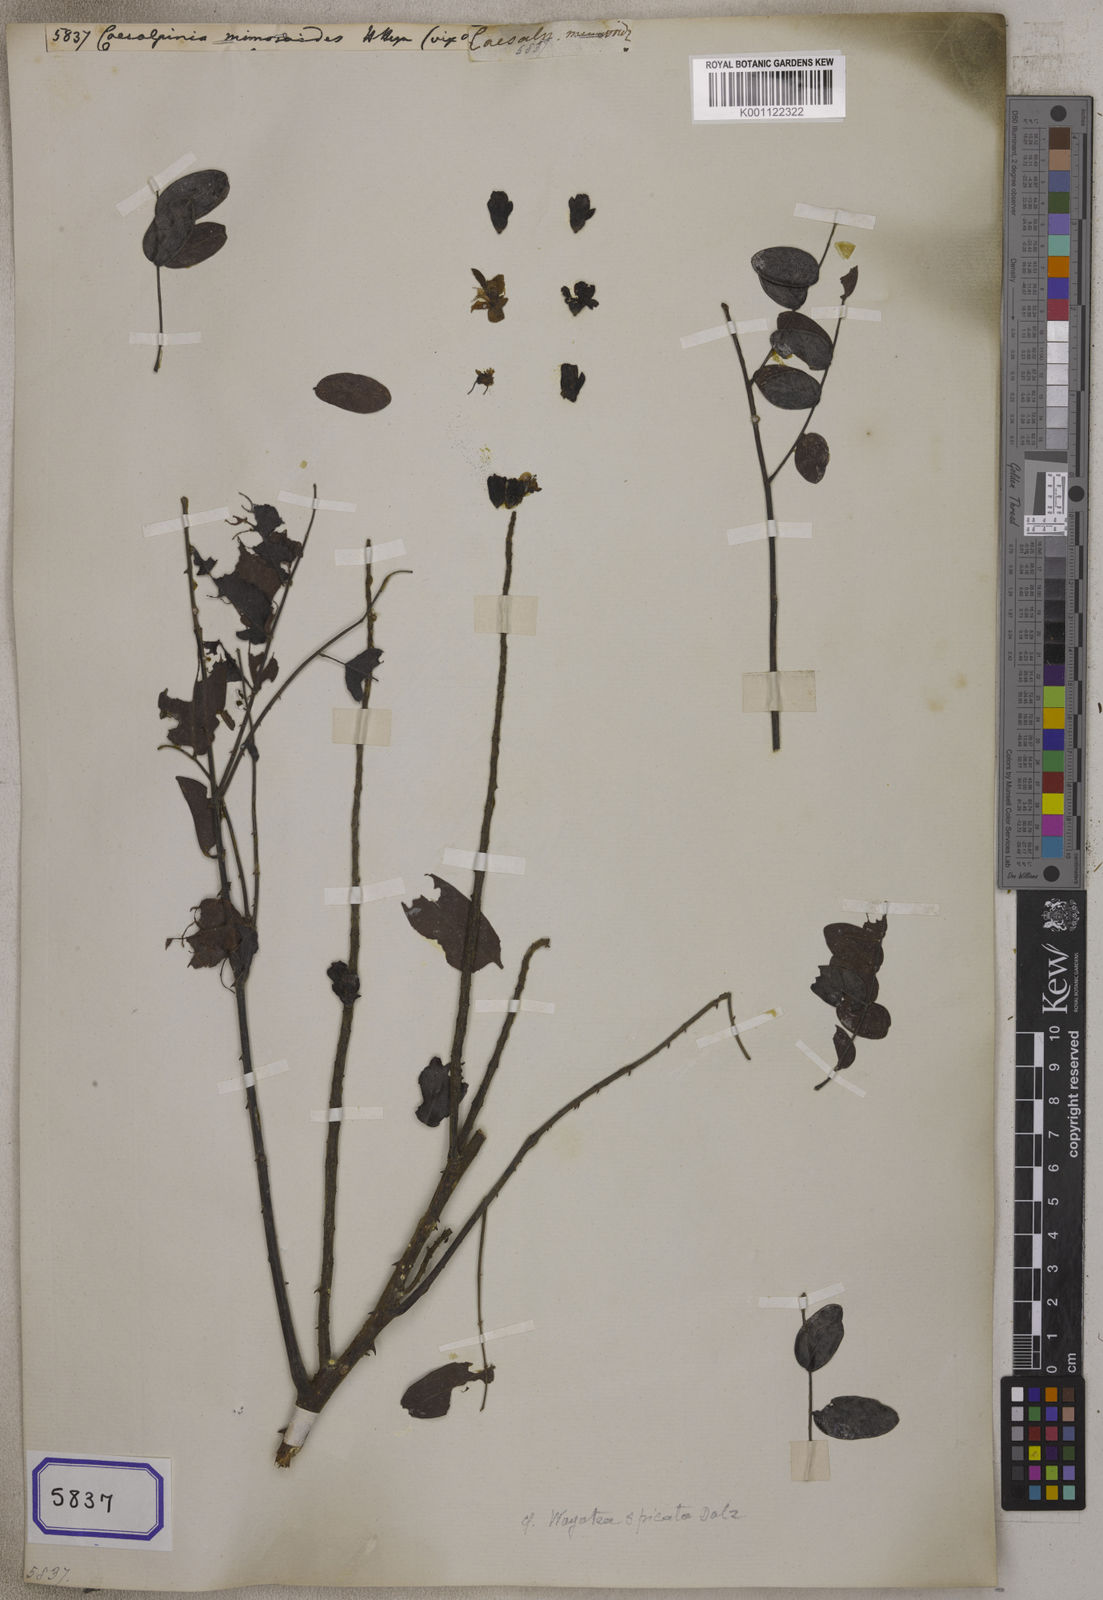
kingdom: Plantae
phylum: Tracheophyta
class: Magnoliopsida
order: Fabales
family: Fabaceae
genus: Moullava
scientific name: Moullava spicata
